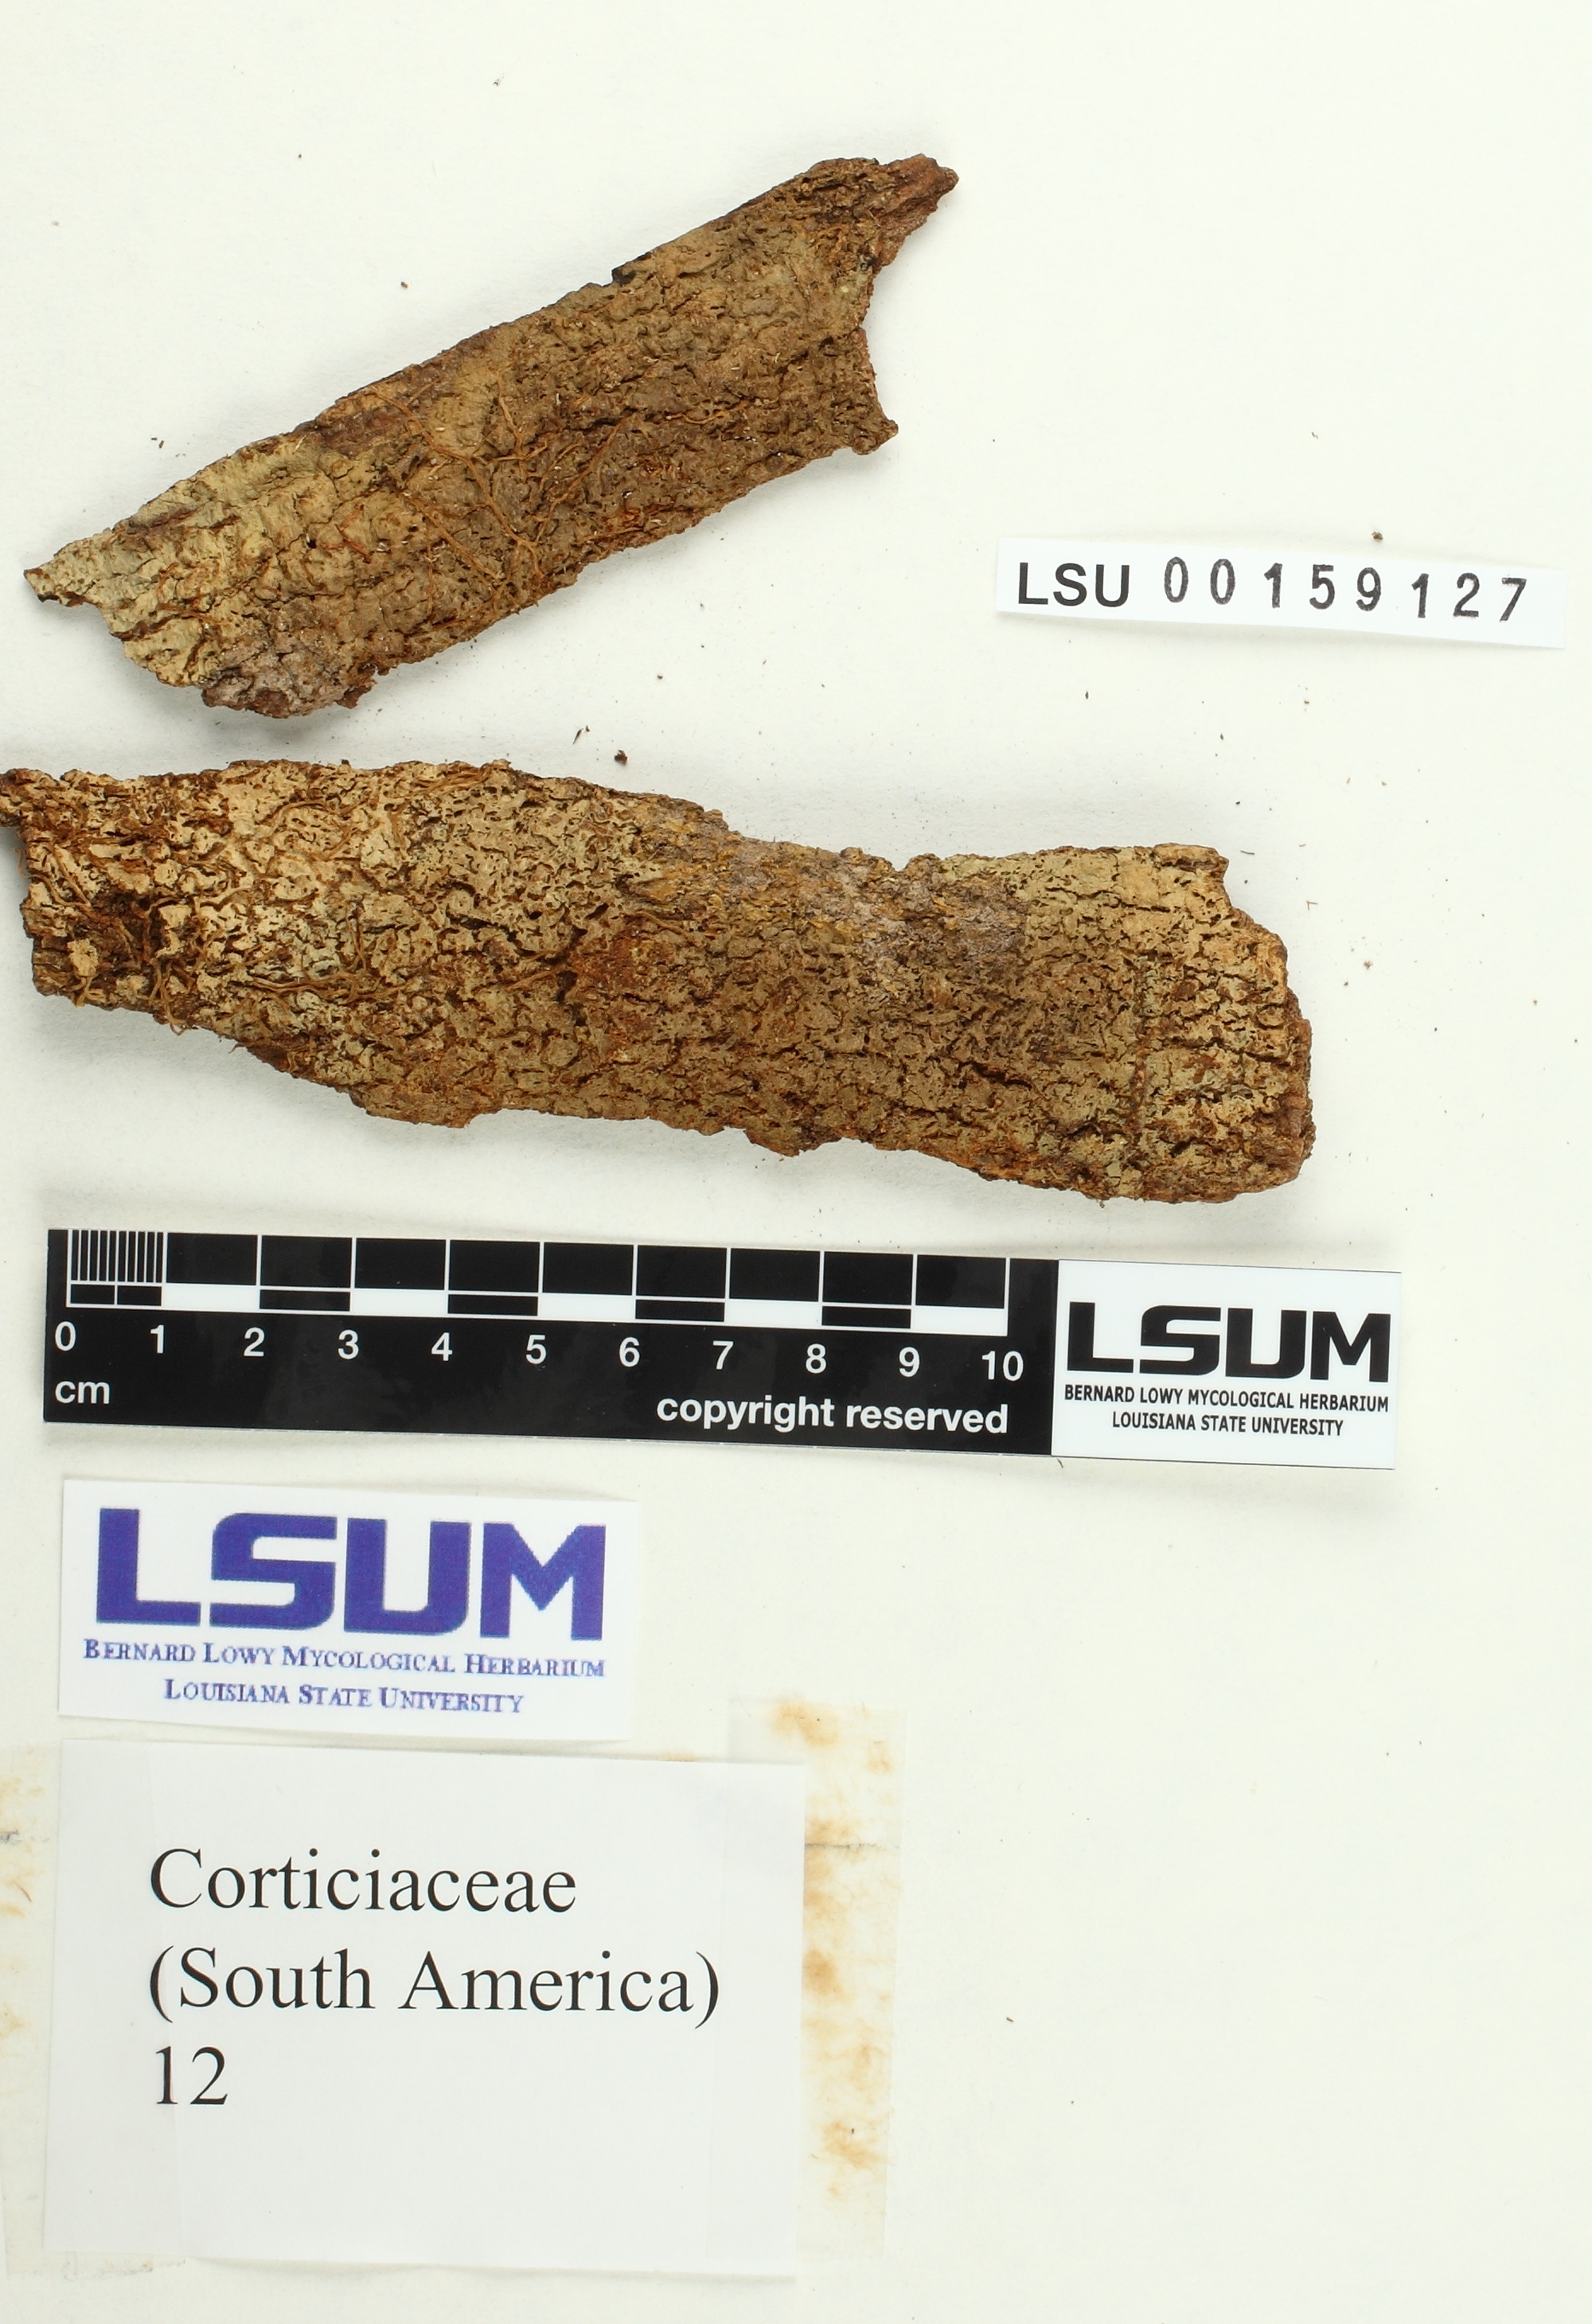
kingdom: Fungi
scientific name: Fungi
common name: Fungi
